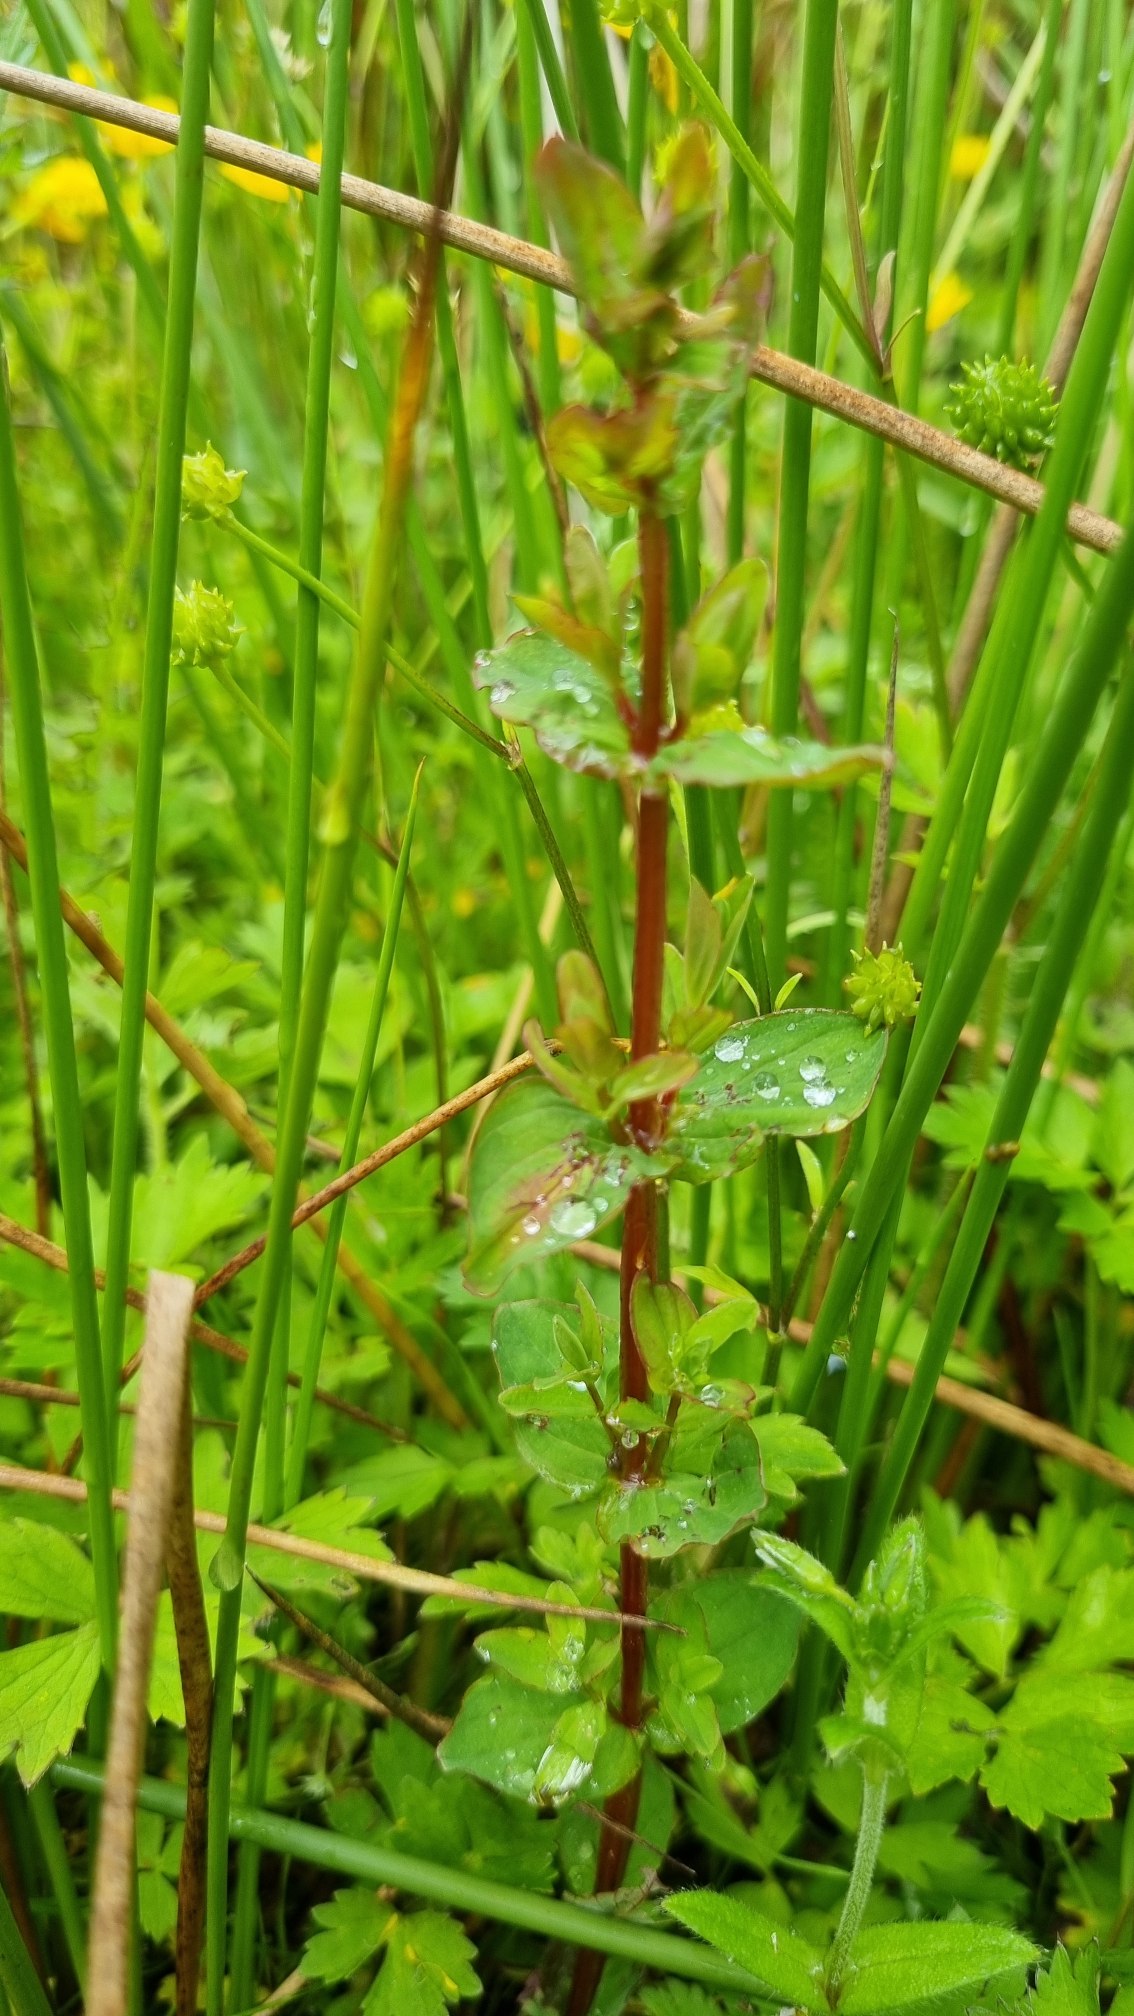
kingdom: Plantae
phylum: Tracheophyta
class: Magnoliopsida
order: Malpighiales
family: Hypericaceae
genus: Hypericum
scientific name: Hypericum tetrapterum
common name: Vinget perikon
